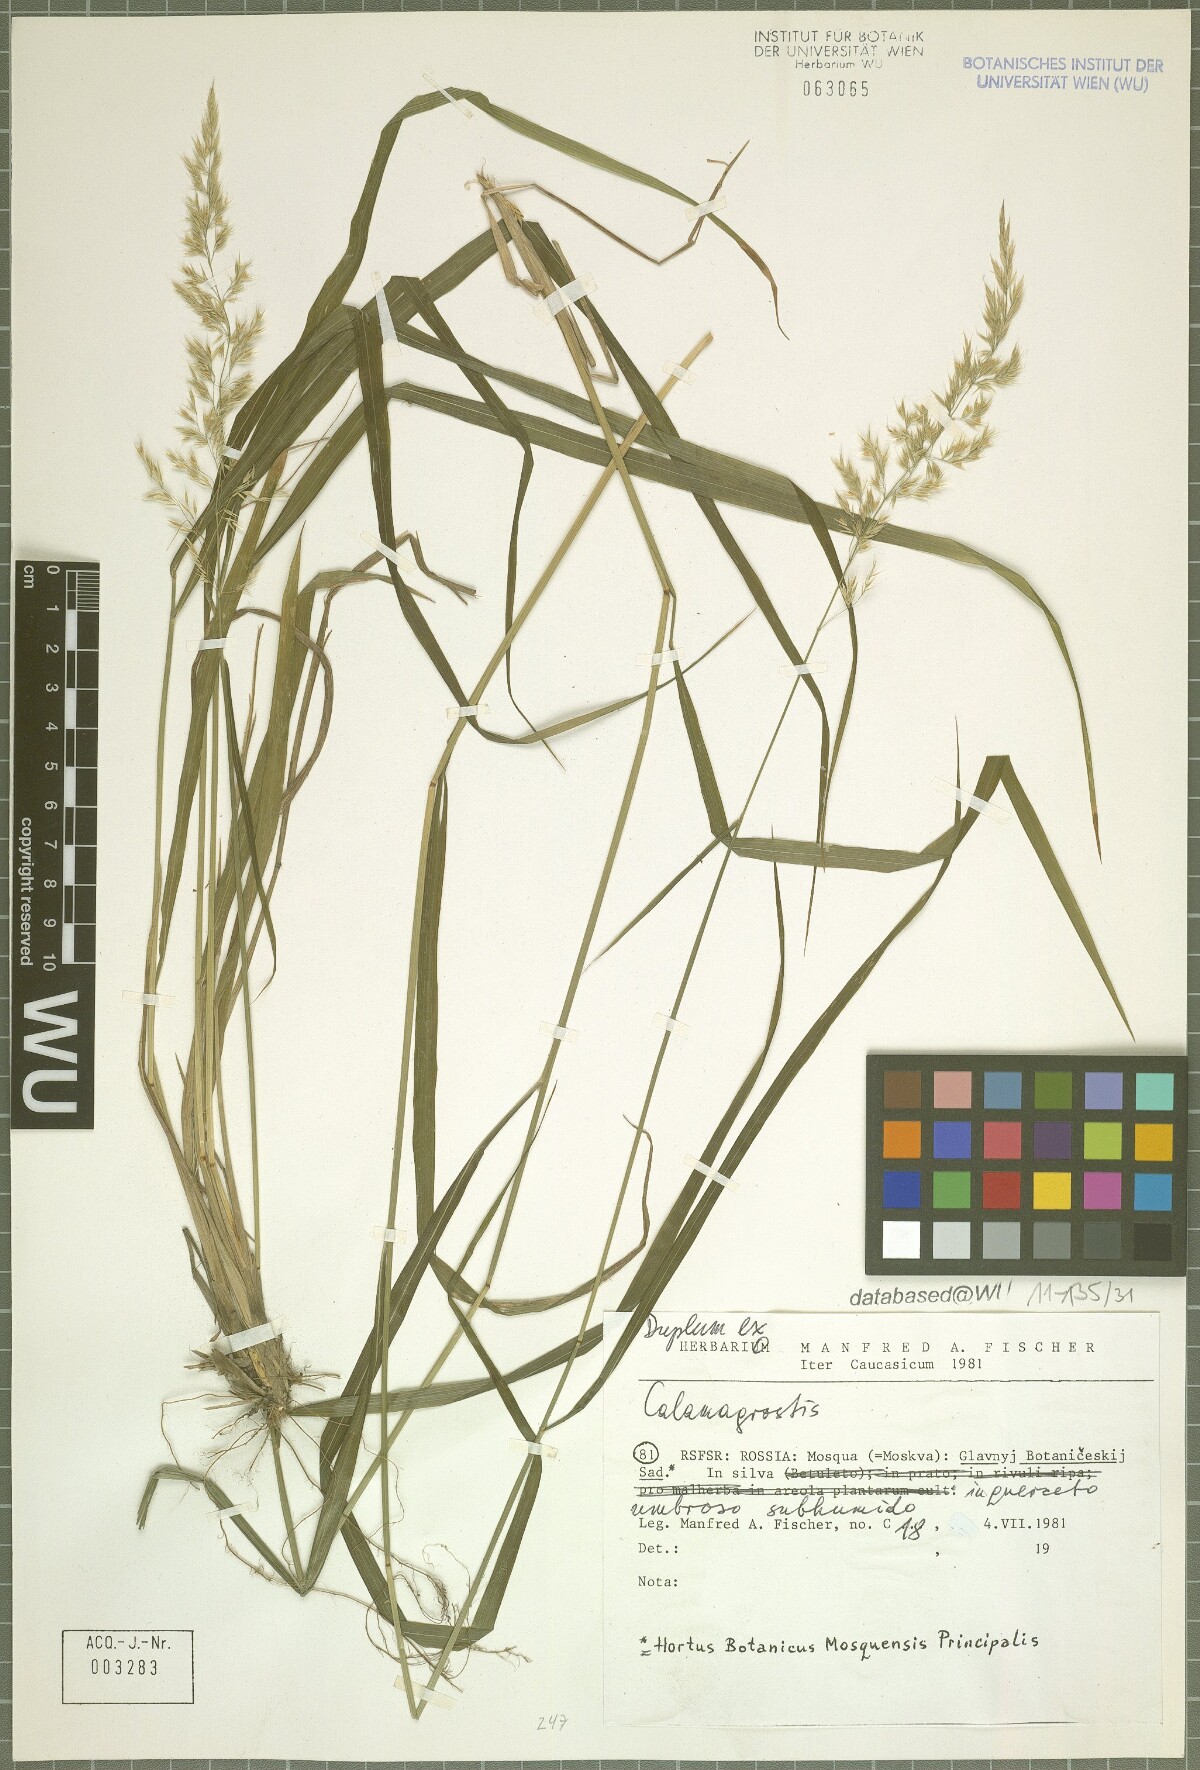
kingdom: Plantae
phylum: Tracheophyta
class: Liliopsida
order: Poales
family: Poaceae
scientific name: Poaceae
